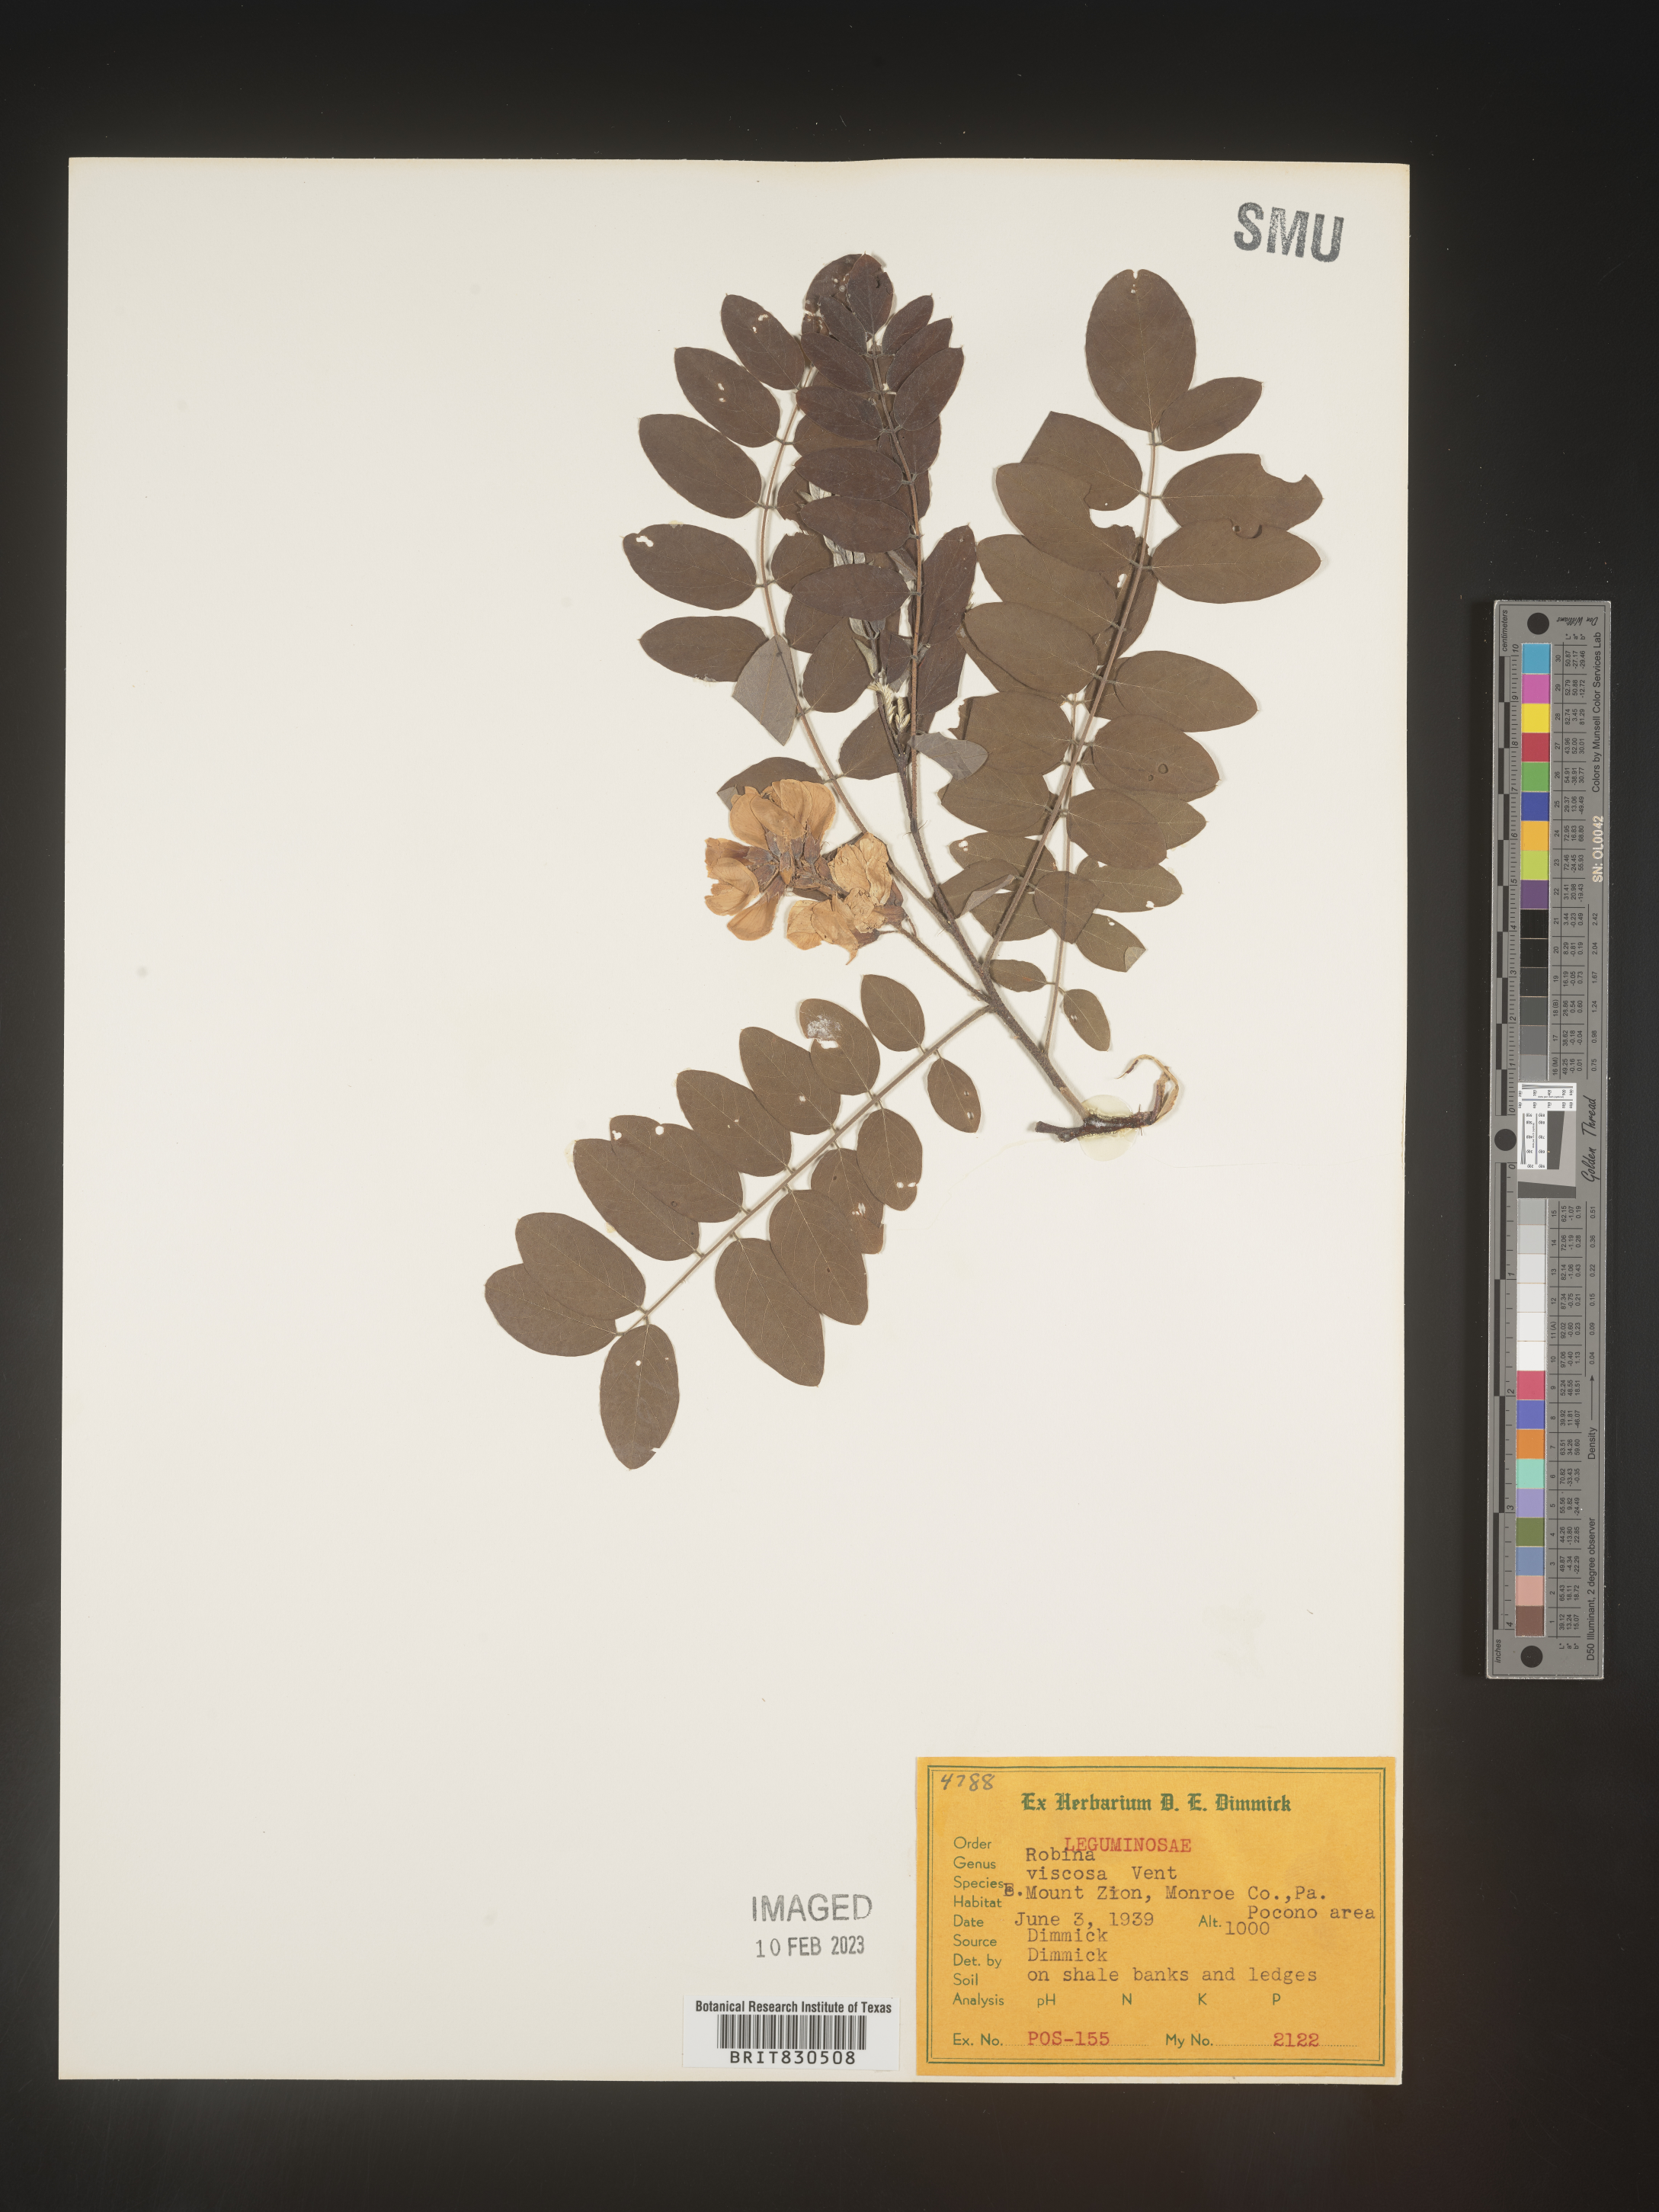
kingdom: Plantae
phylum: Tracheophyta
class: Magnoliopsida
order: Fabales
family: Fabaceae
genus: Robinia
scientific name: Robinia
